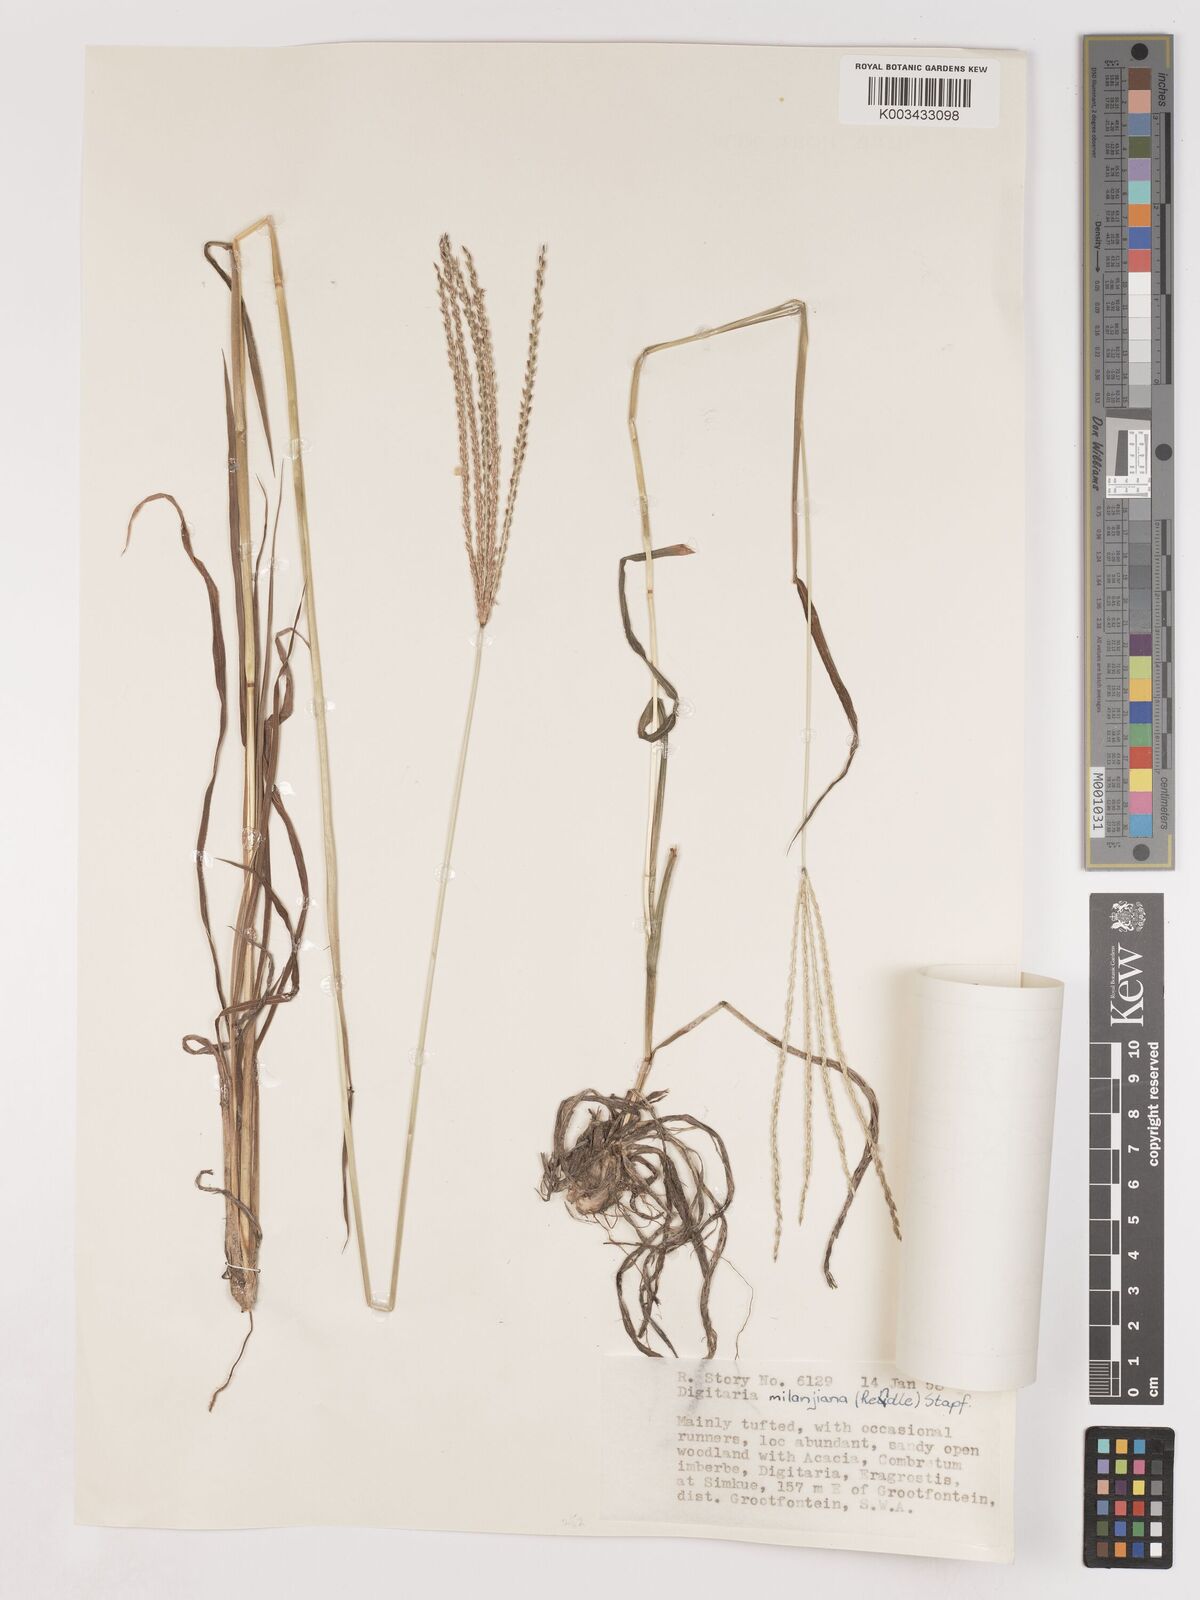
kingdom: Plantae
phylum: Tracheophyta
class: Liliopsida
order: Poales
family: Poaceae
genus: Digitaria
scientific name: Digitaria milanjiana
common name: Madagascar crabgrass
